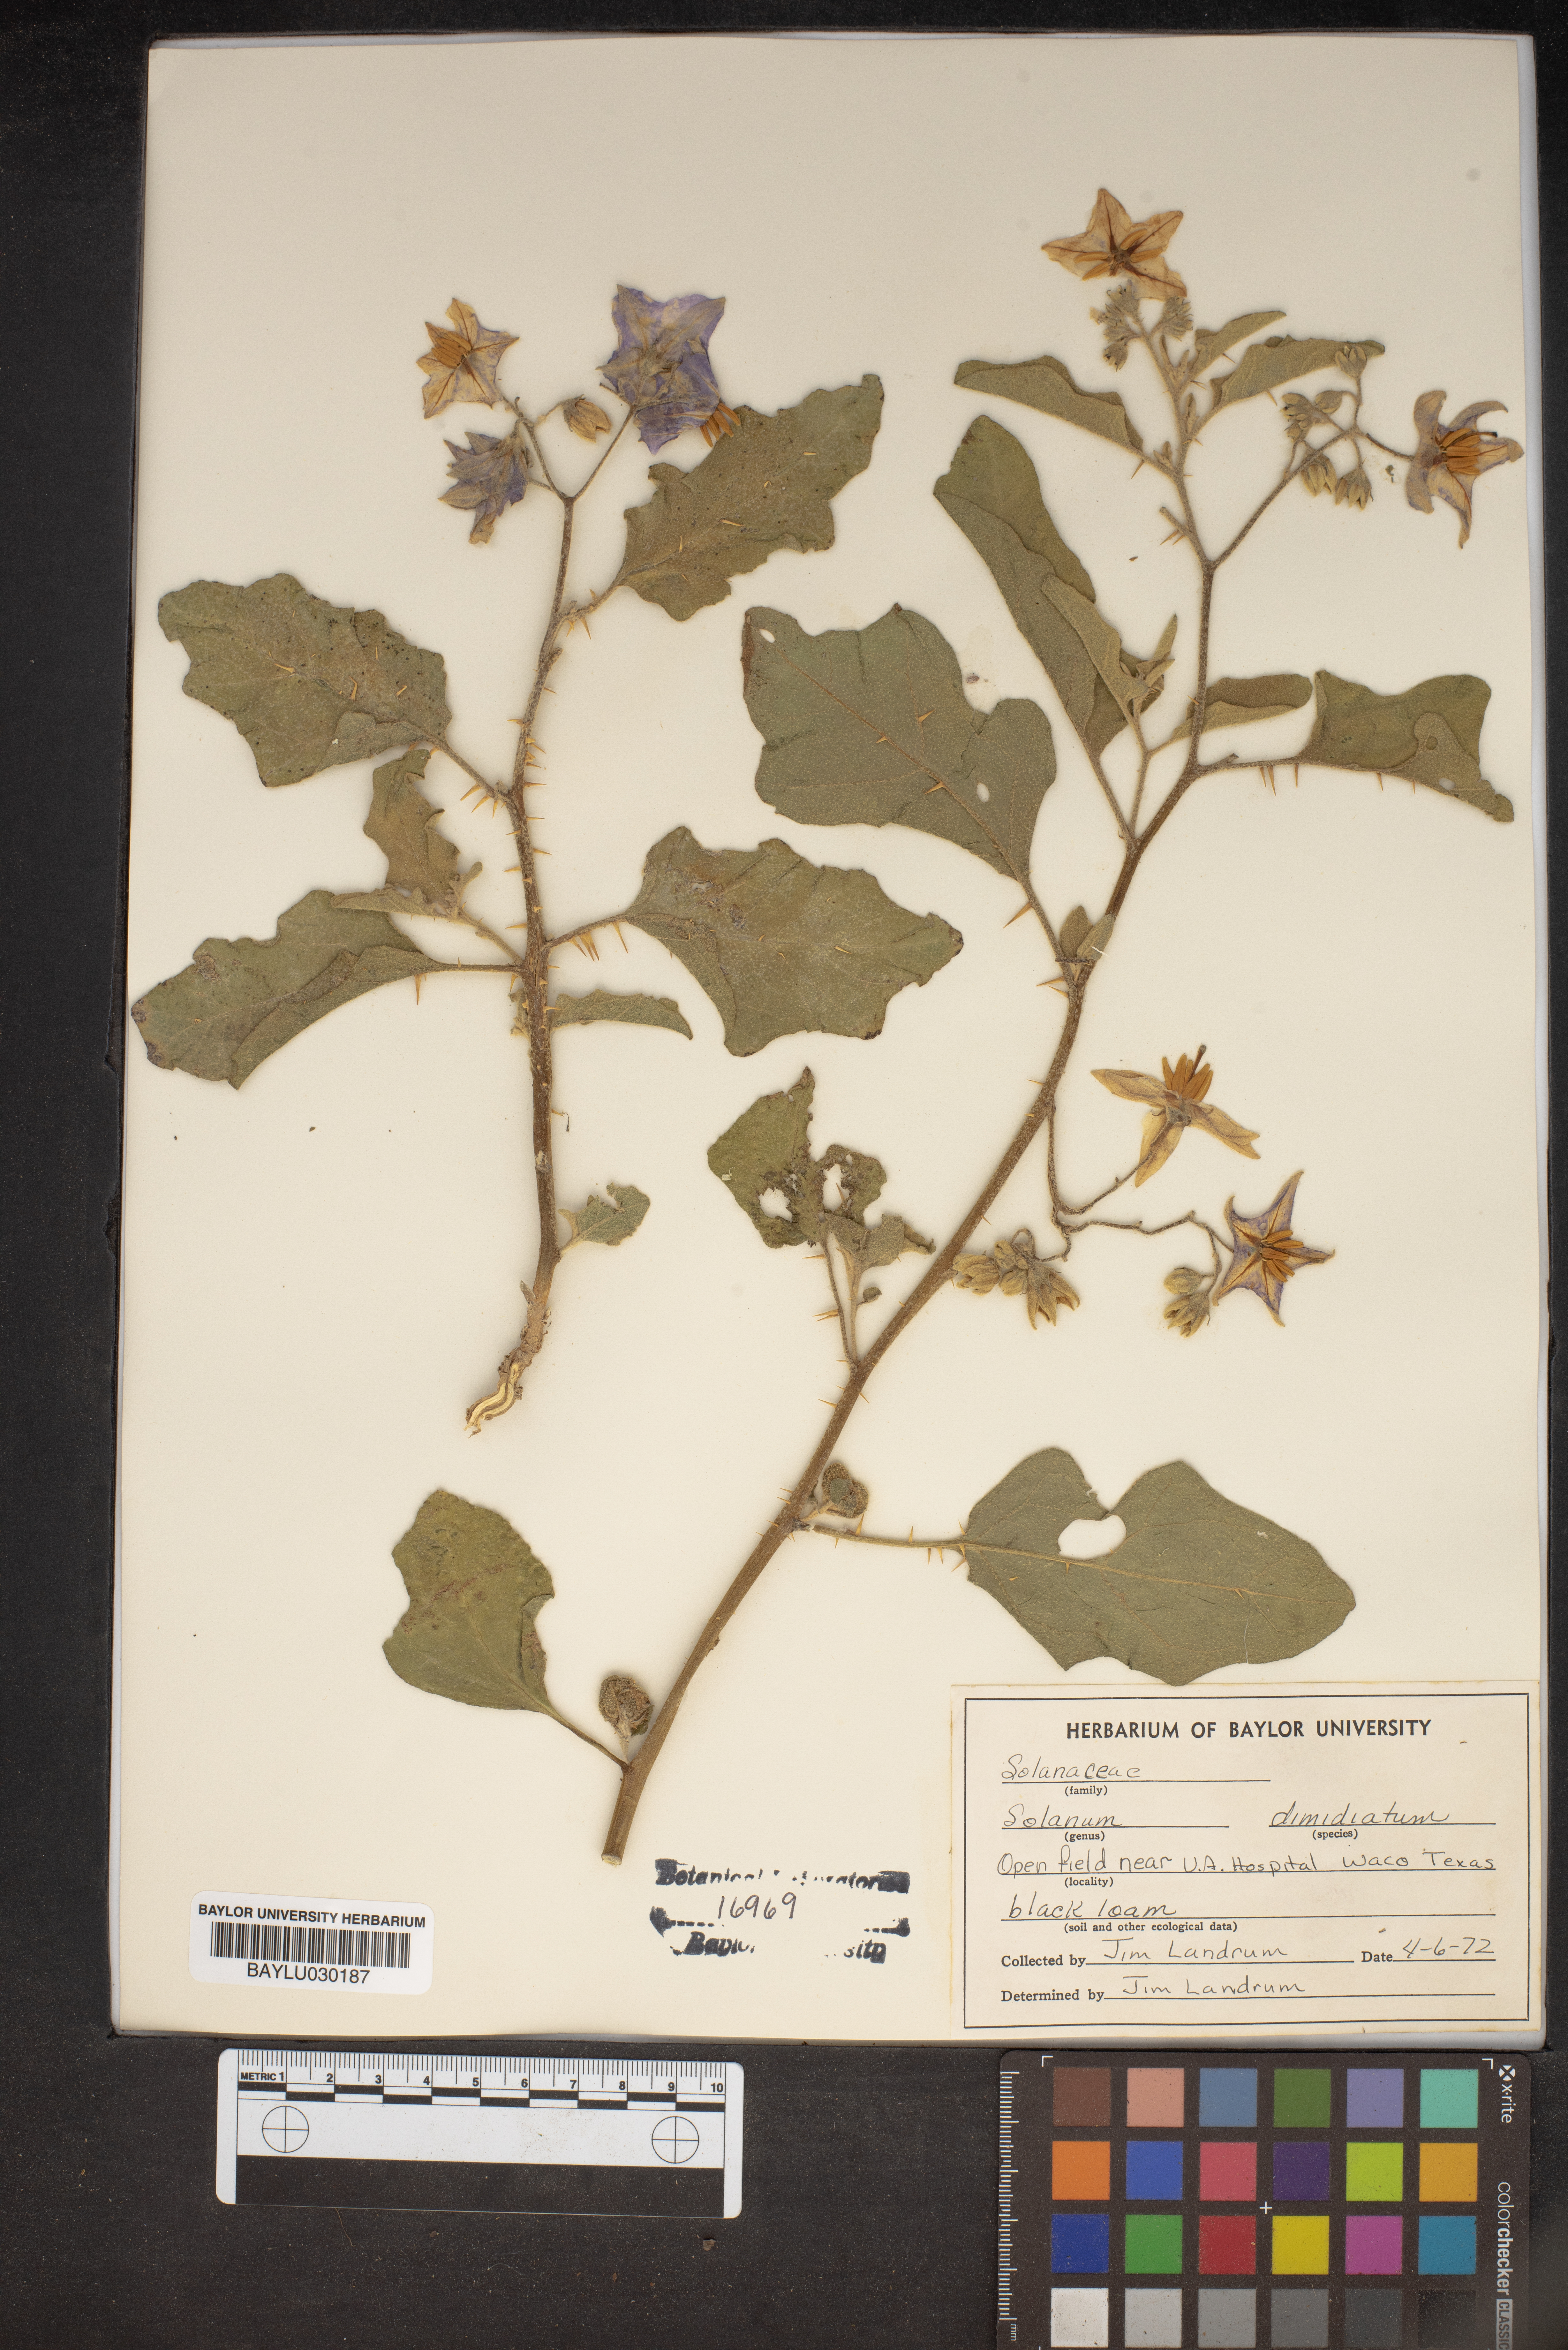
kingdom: Plantae
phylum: Tracheophyta
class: Magnoliopsida
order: Solanales
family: Solanaceae
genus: Solanum
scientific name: Solanum dimidiatum
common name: Carolina horse-nettle
